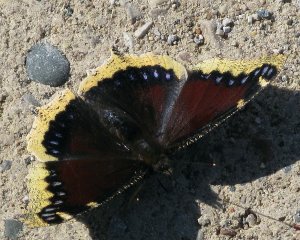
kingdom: Animalia
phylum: Arthropoda
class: Insecta
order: Lepidoptera
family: Nymphalidae
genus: Nymphalis
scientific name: Nymphalis antiopa
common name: Mourning Cloak
